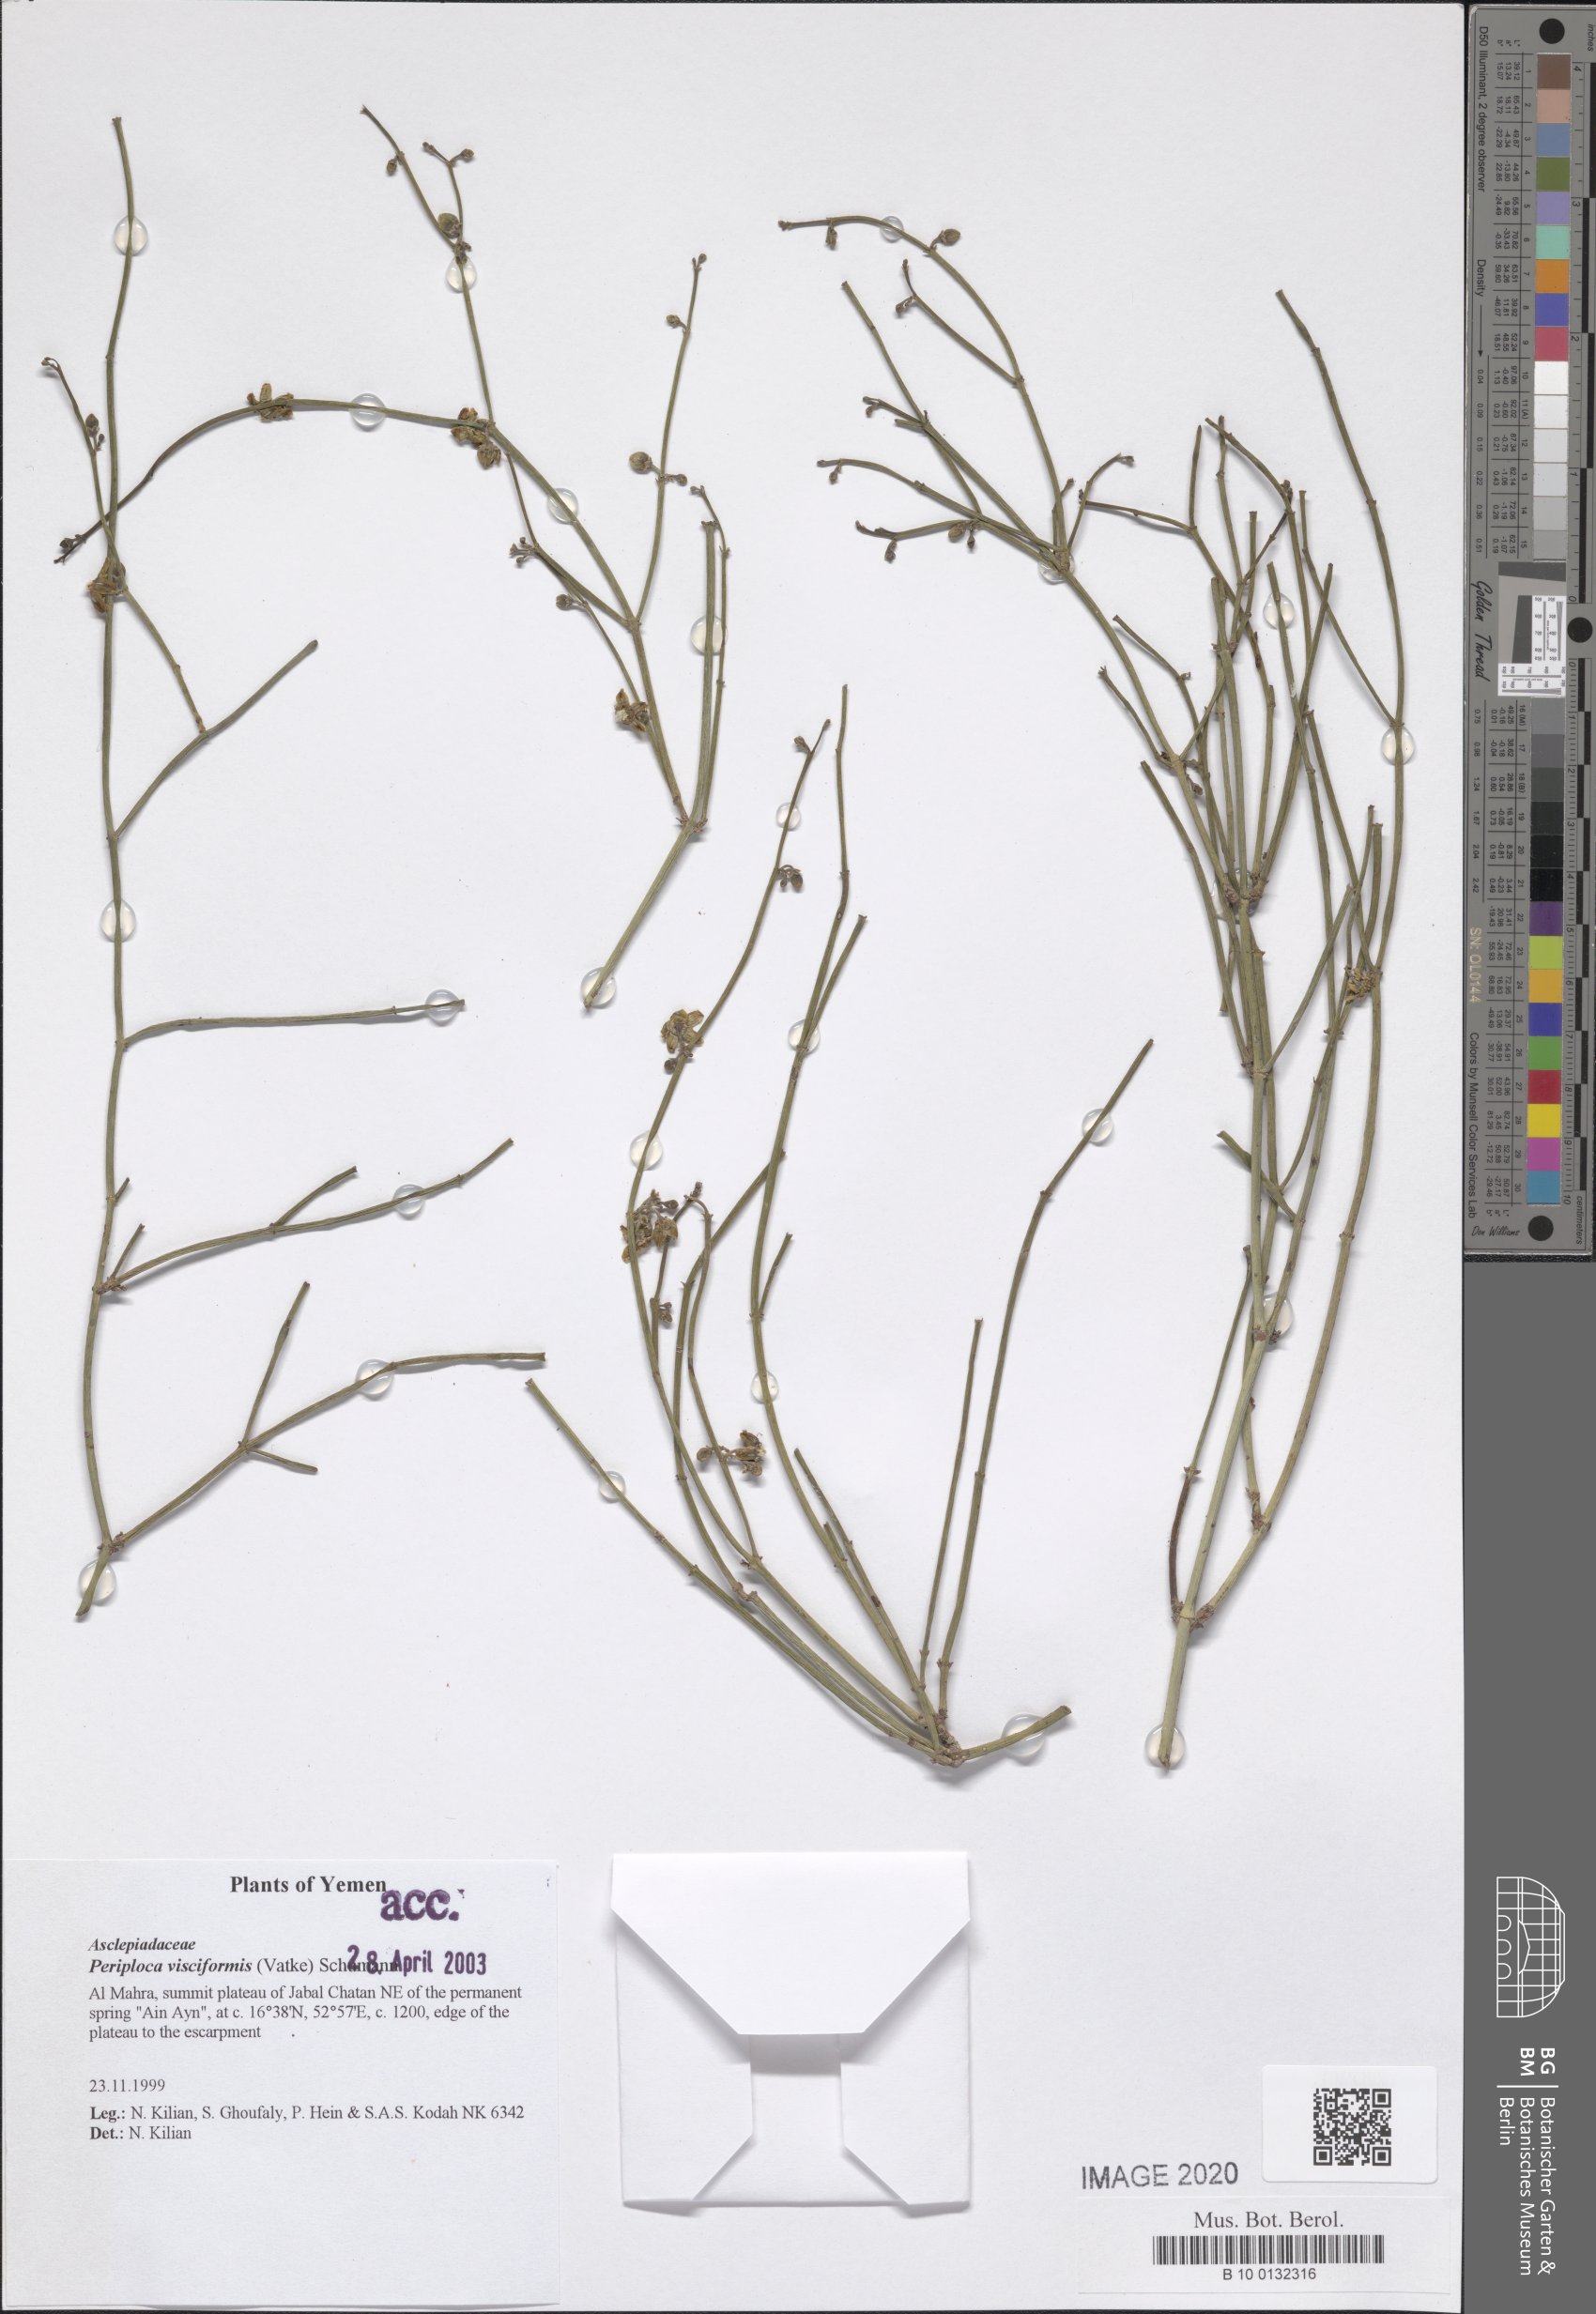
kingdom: Plantae
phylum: Tracheophyta
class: Magnoliopsida
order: Gentianales
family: Apocynaceae
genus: Periploca
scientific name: Periploca visciformis
